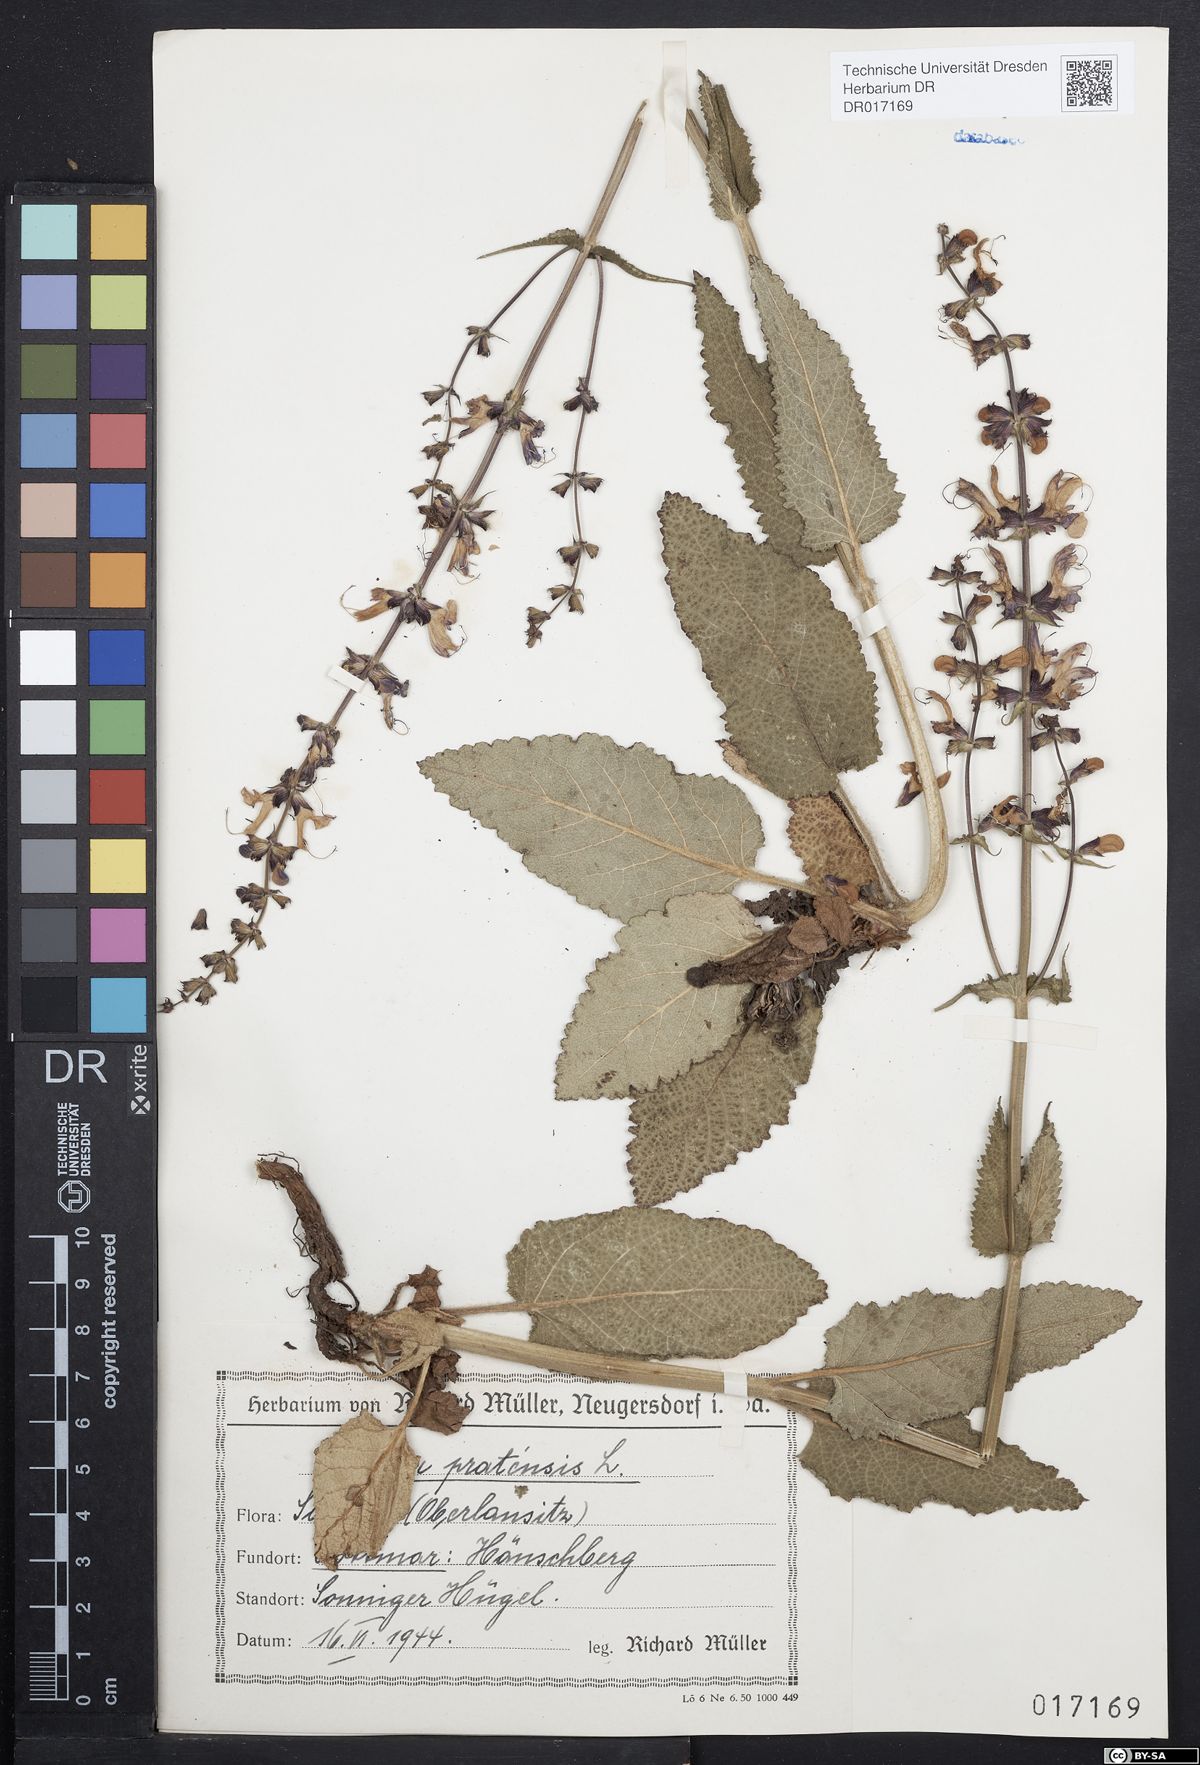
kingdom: Plantae
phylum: Tracheophyta
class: Magnoliopsida
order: Lamiales
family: Lamiaceae
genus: Salvia
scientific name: Salvia pratensis
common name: Meadow sage
